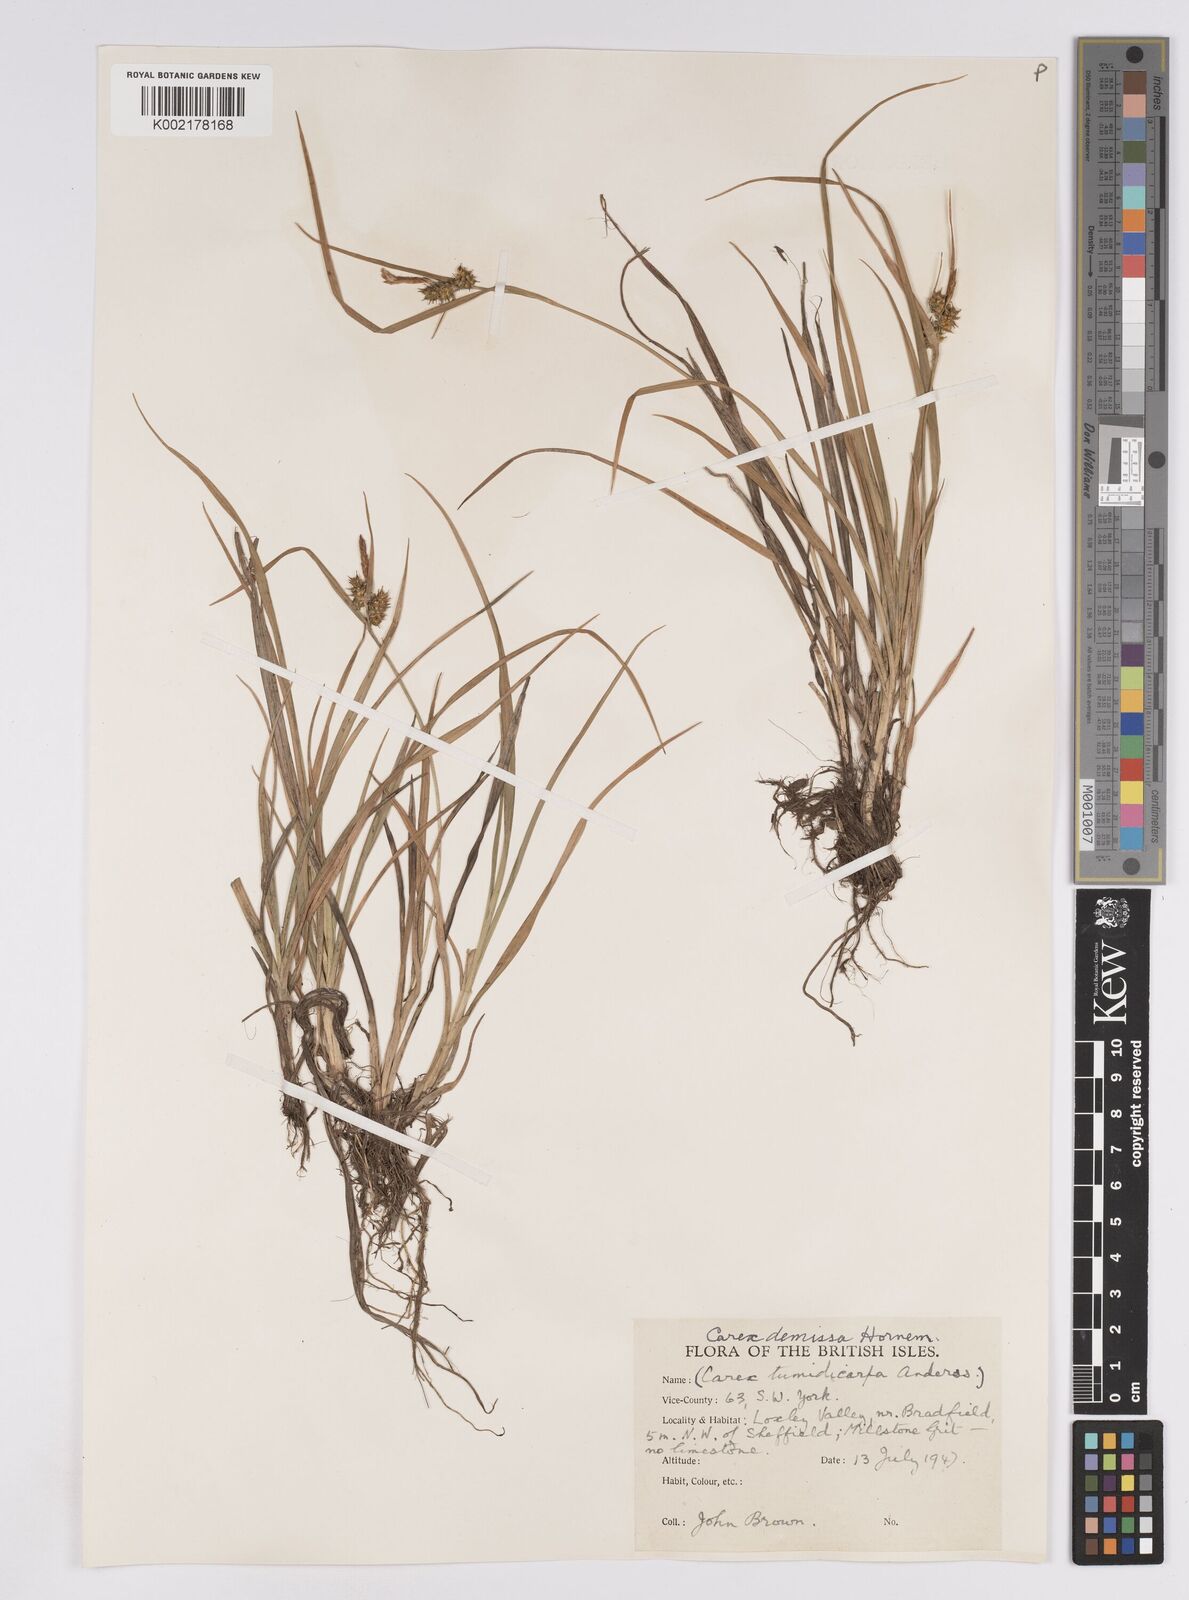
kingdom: Plantae
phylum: Tracheophyta
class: Liliopsida
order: Poales
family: Cyperaceae
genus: Carex
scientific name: Carex demissa
